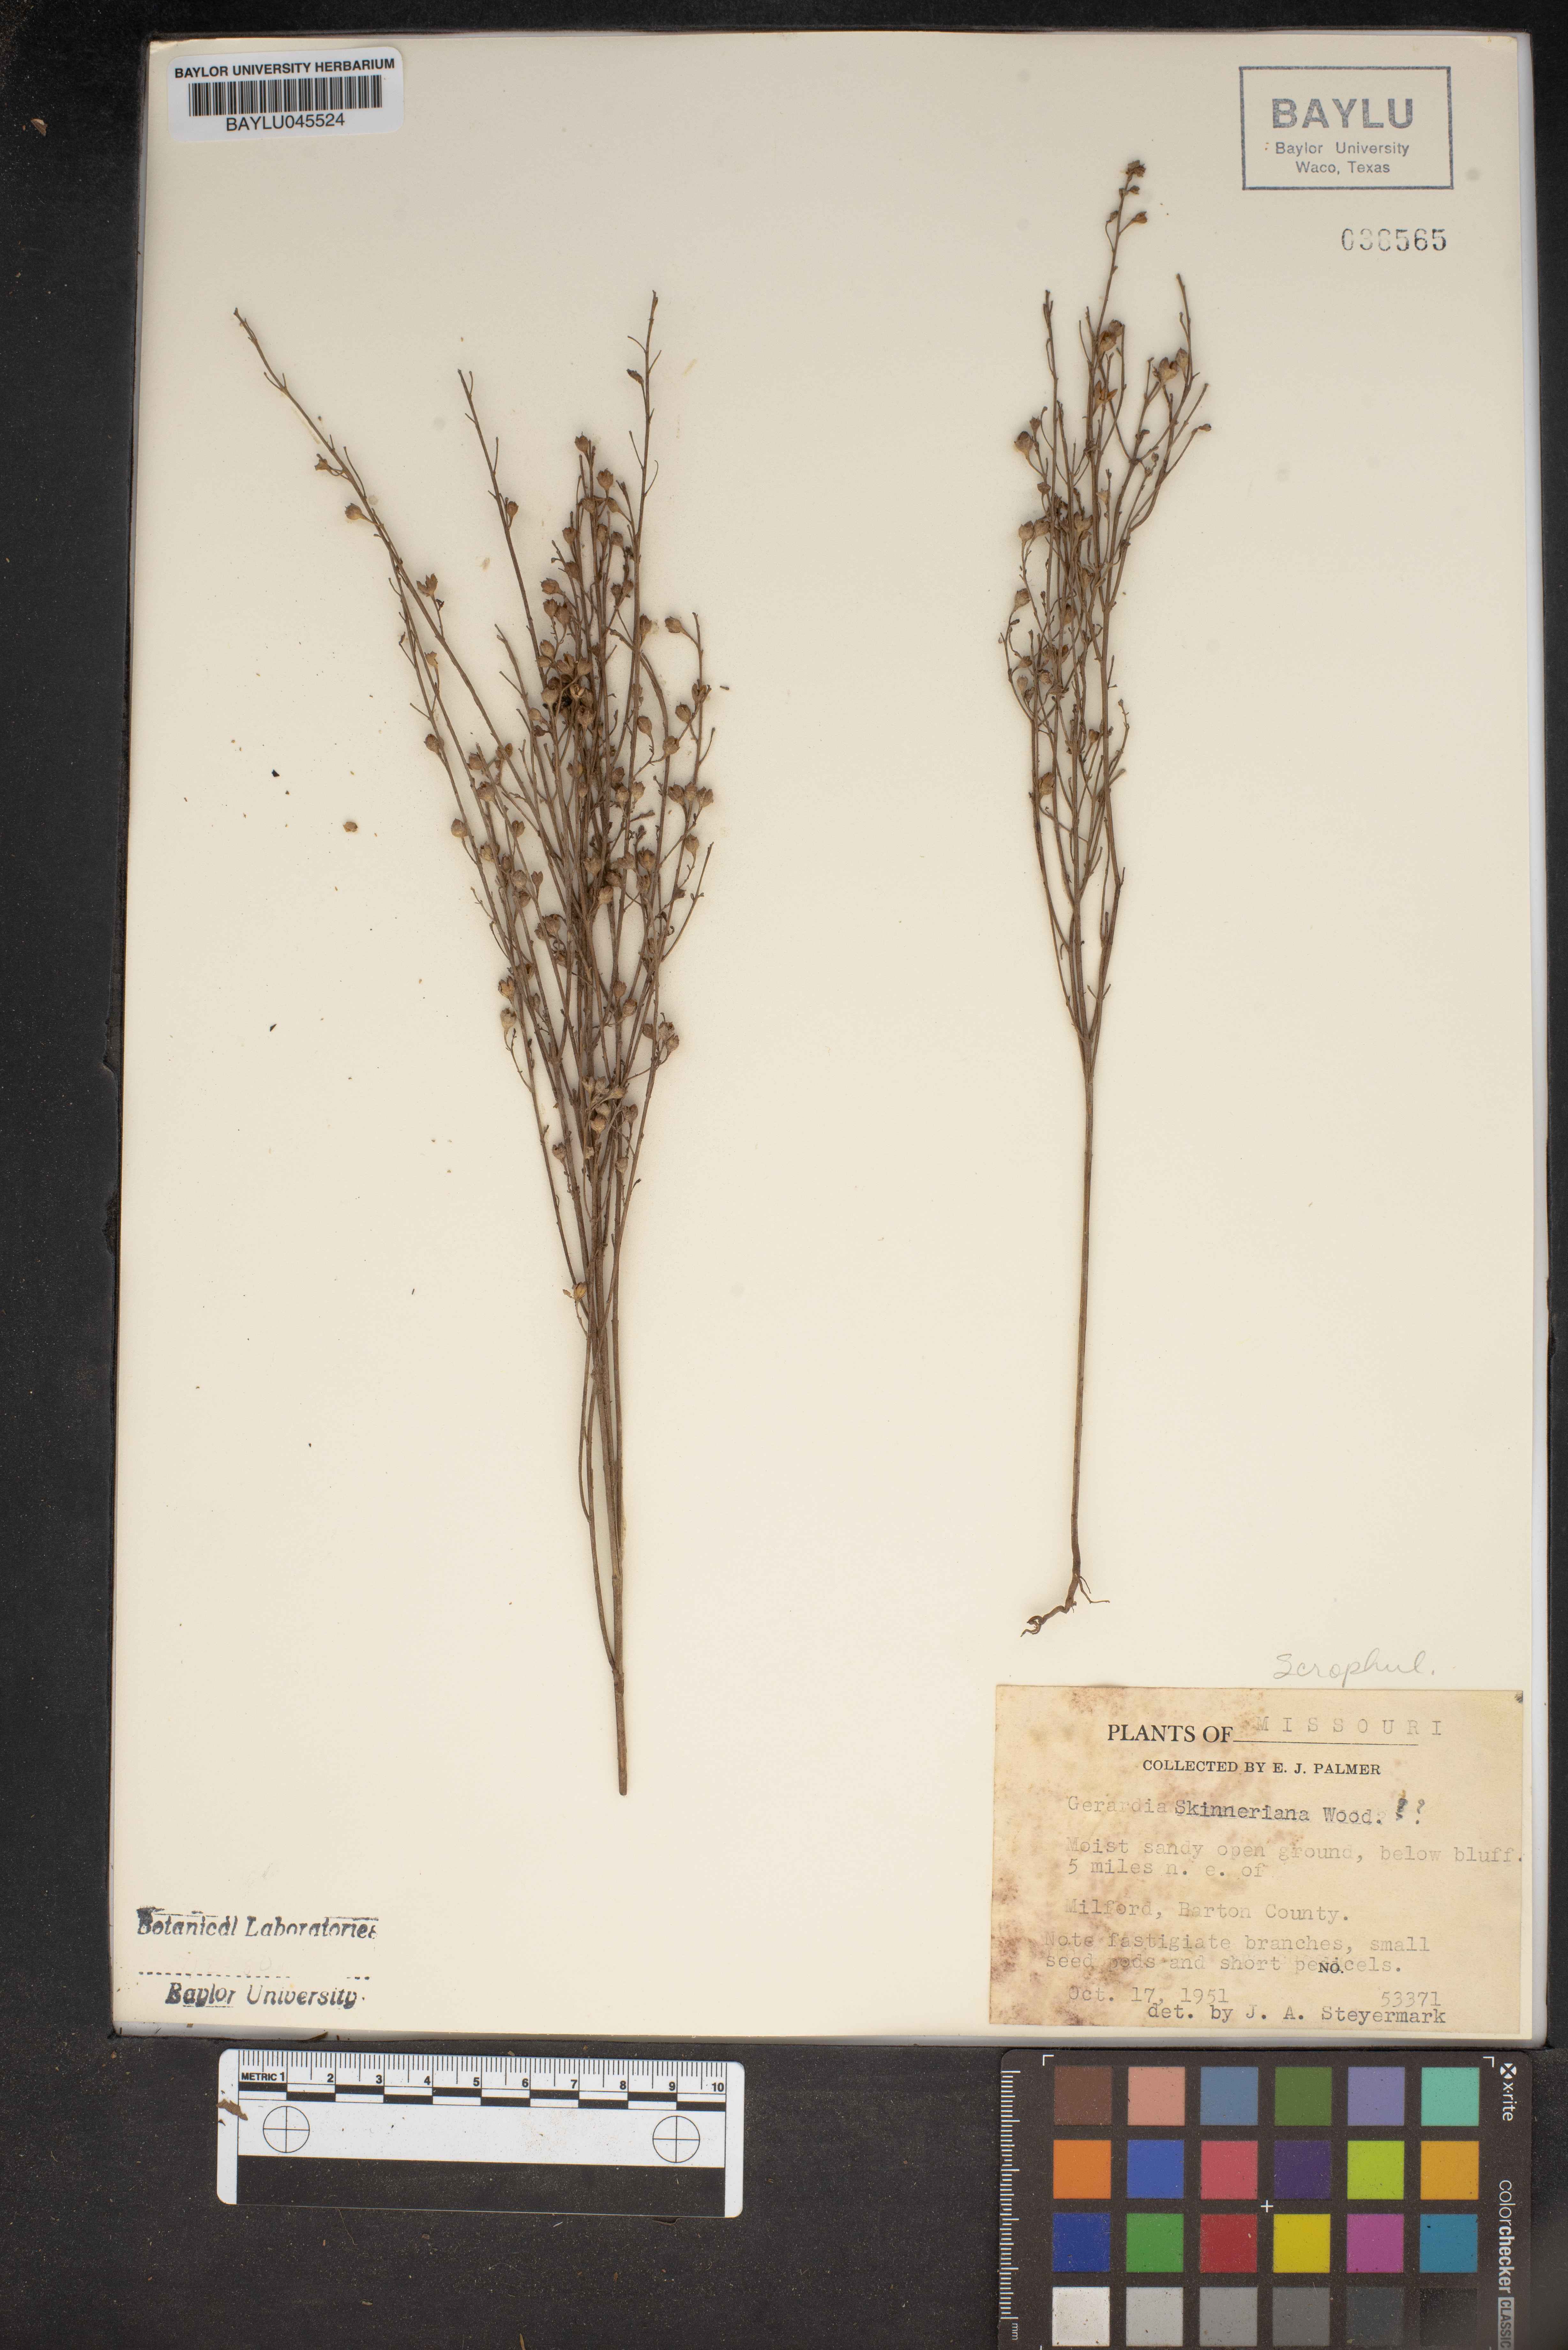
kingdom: Plantae
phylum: Tracheophyta
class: Magnoliopsida
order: Lamiales
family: Orobanchaceae
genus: Agalinis
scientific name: Agalinis skinneriana
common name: Skinner's agalinis
